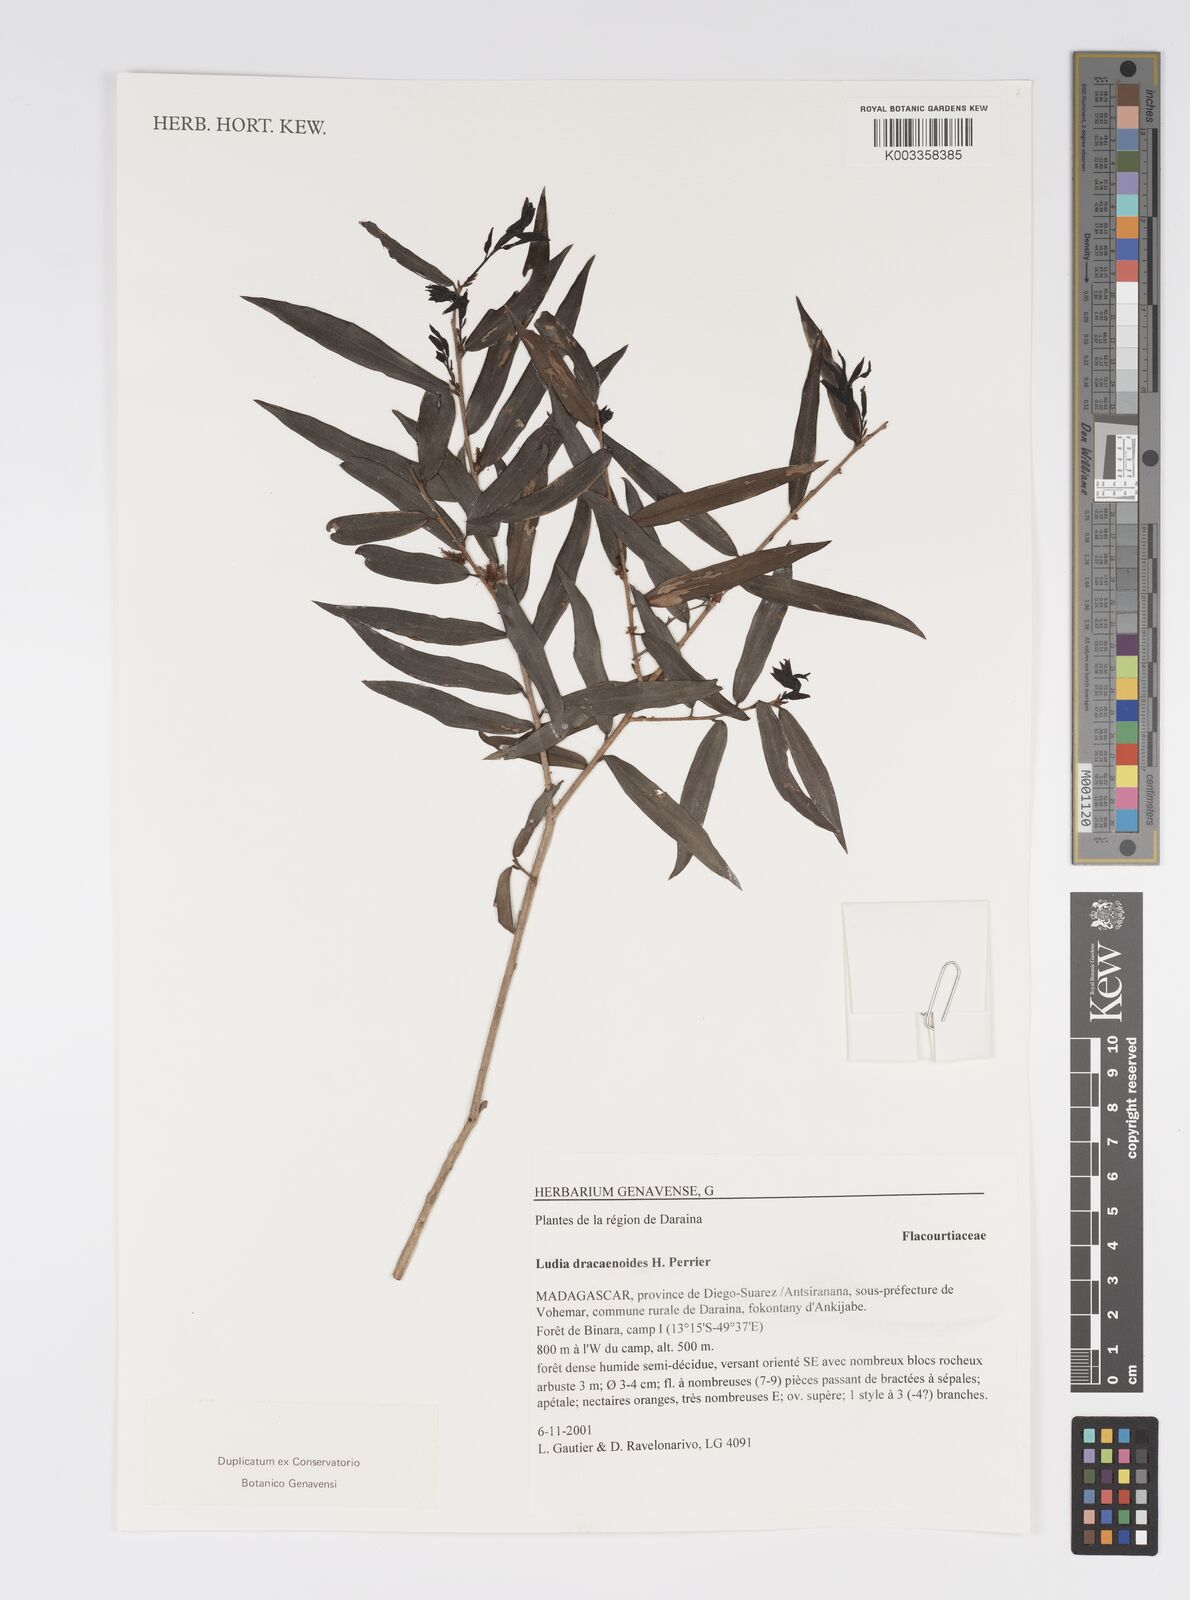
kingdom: Plantae
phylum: Tracheophyta
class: Magnoliopsida
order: Malpighiales
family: Salicaceae
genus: Ludia
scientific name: Ludia dracaenoides
